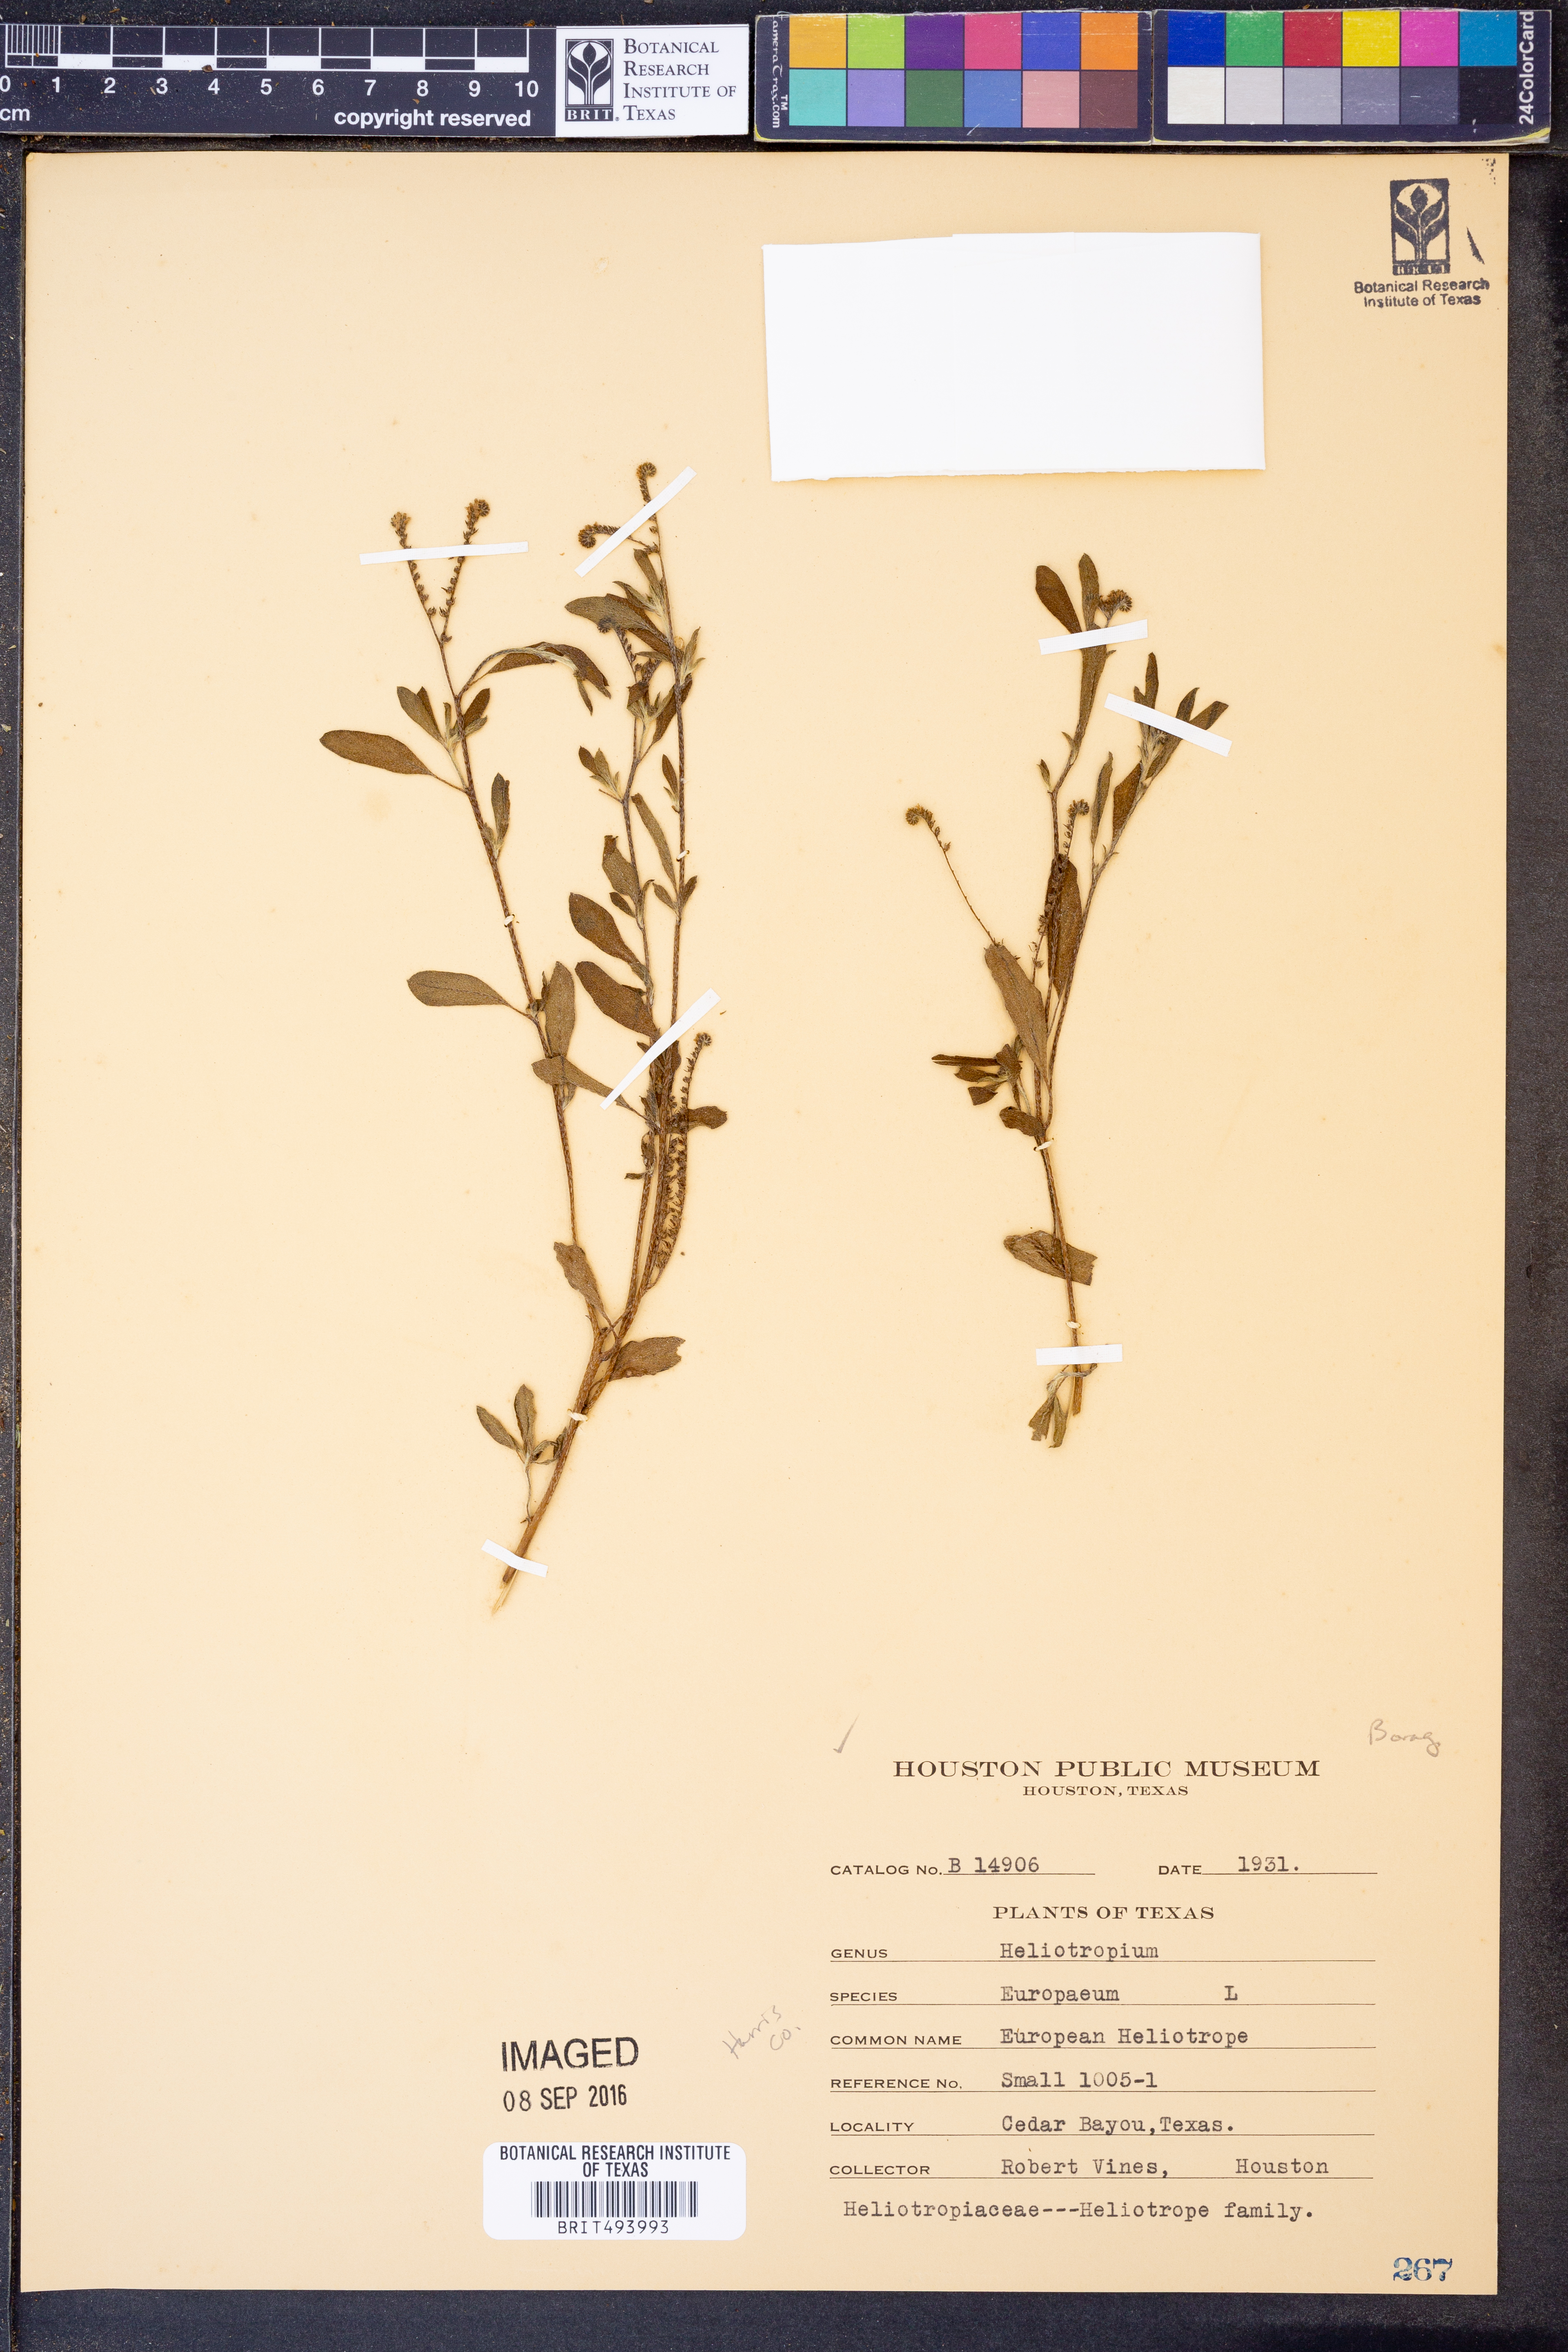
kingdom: Plantae
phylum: Tracheophyta
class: Magnoliopsida
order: Boraginales
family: Heliotropiaceae
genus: Heliotropium
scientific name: Heliotropium europaeum
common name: European heliotrope
